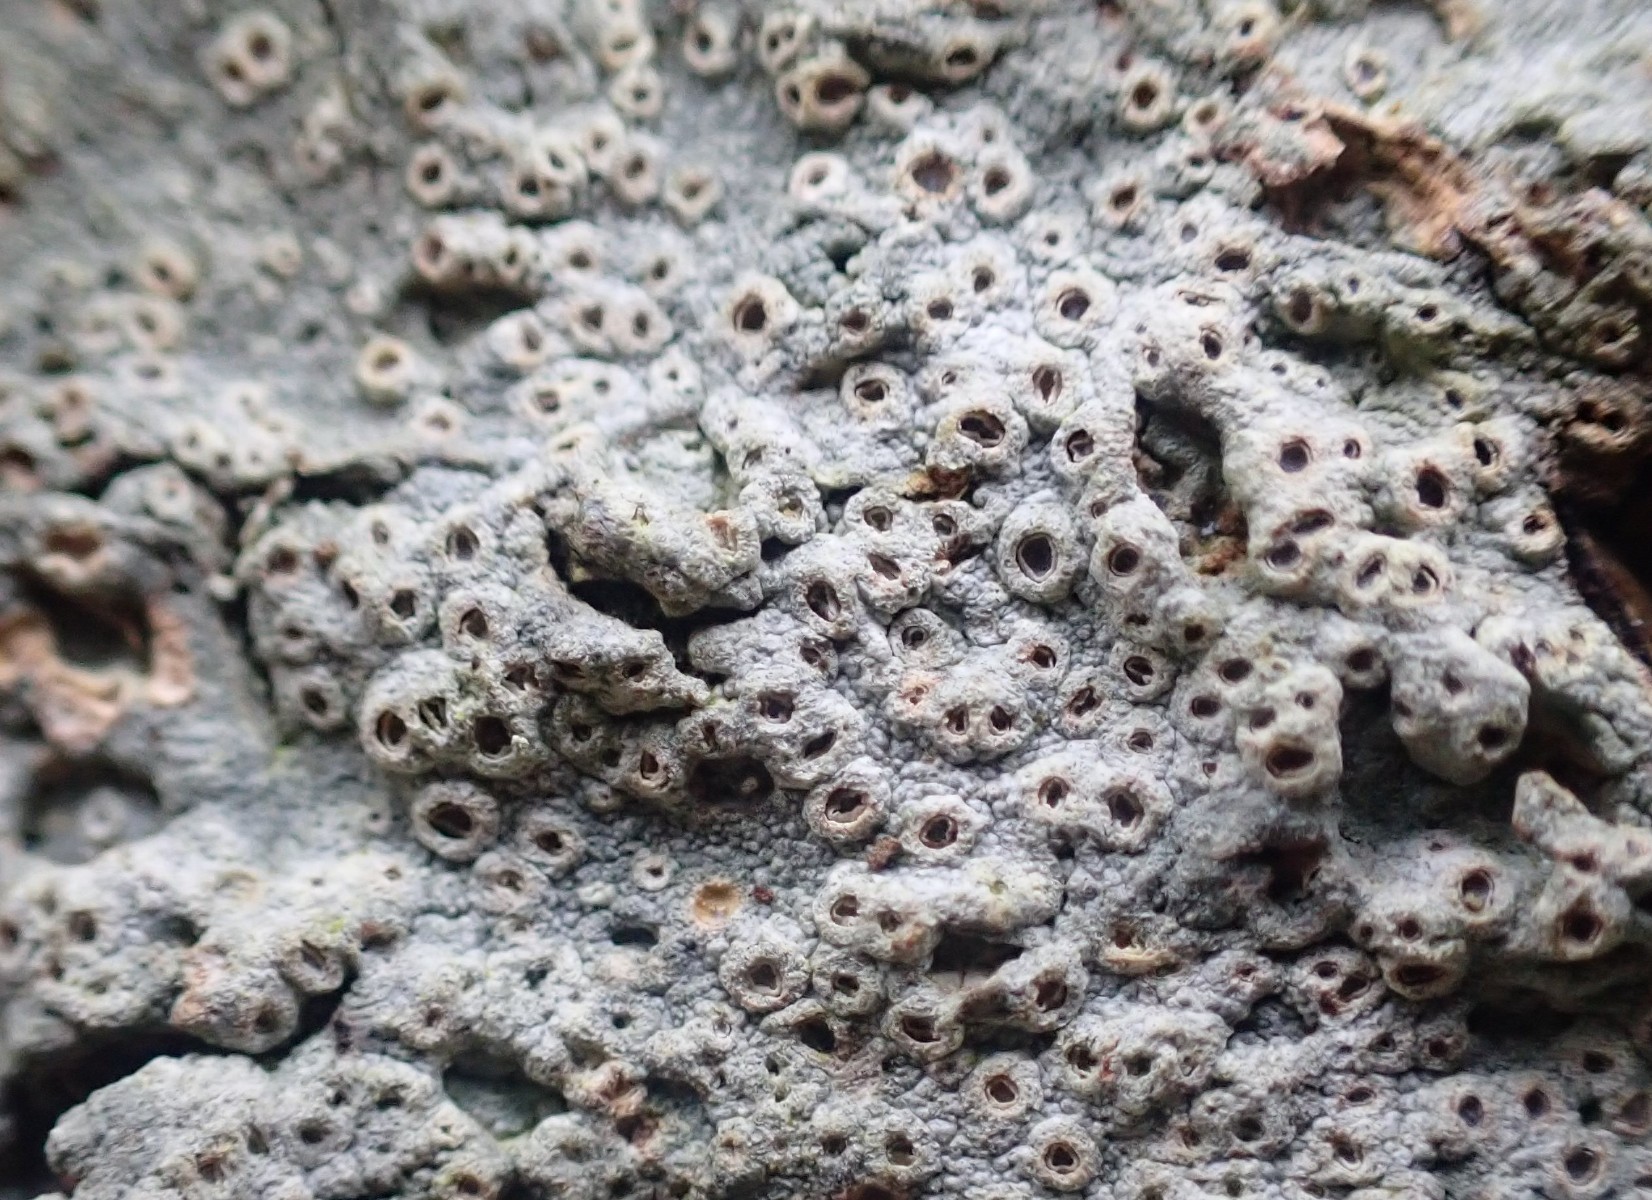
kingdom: Fungi
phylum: Ascomycota
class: Lecanoromycetes
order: Ostropales
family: Graphidaceae
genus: Thelotrema
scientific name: Thelotrema lepadinum
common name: almindelig slørkantlav
